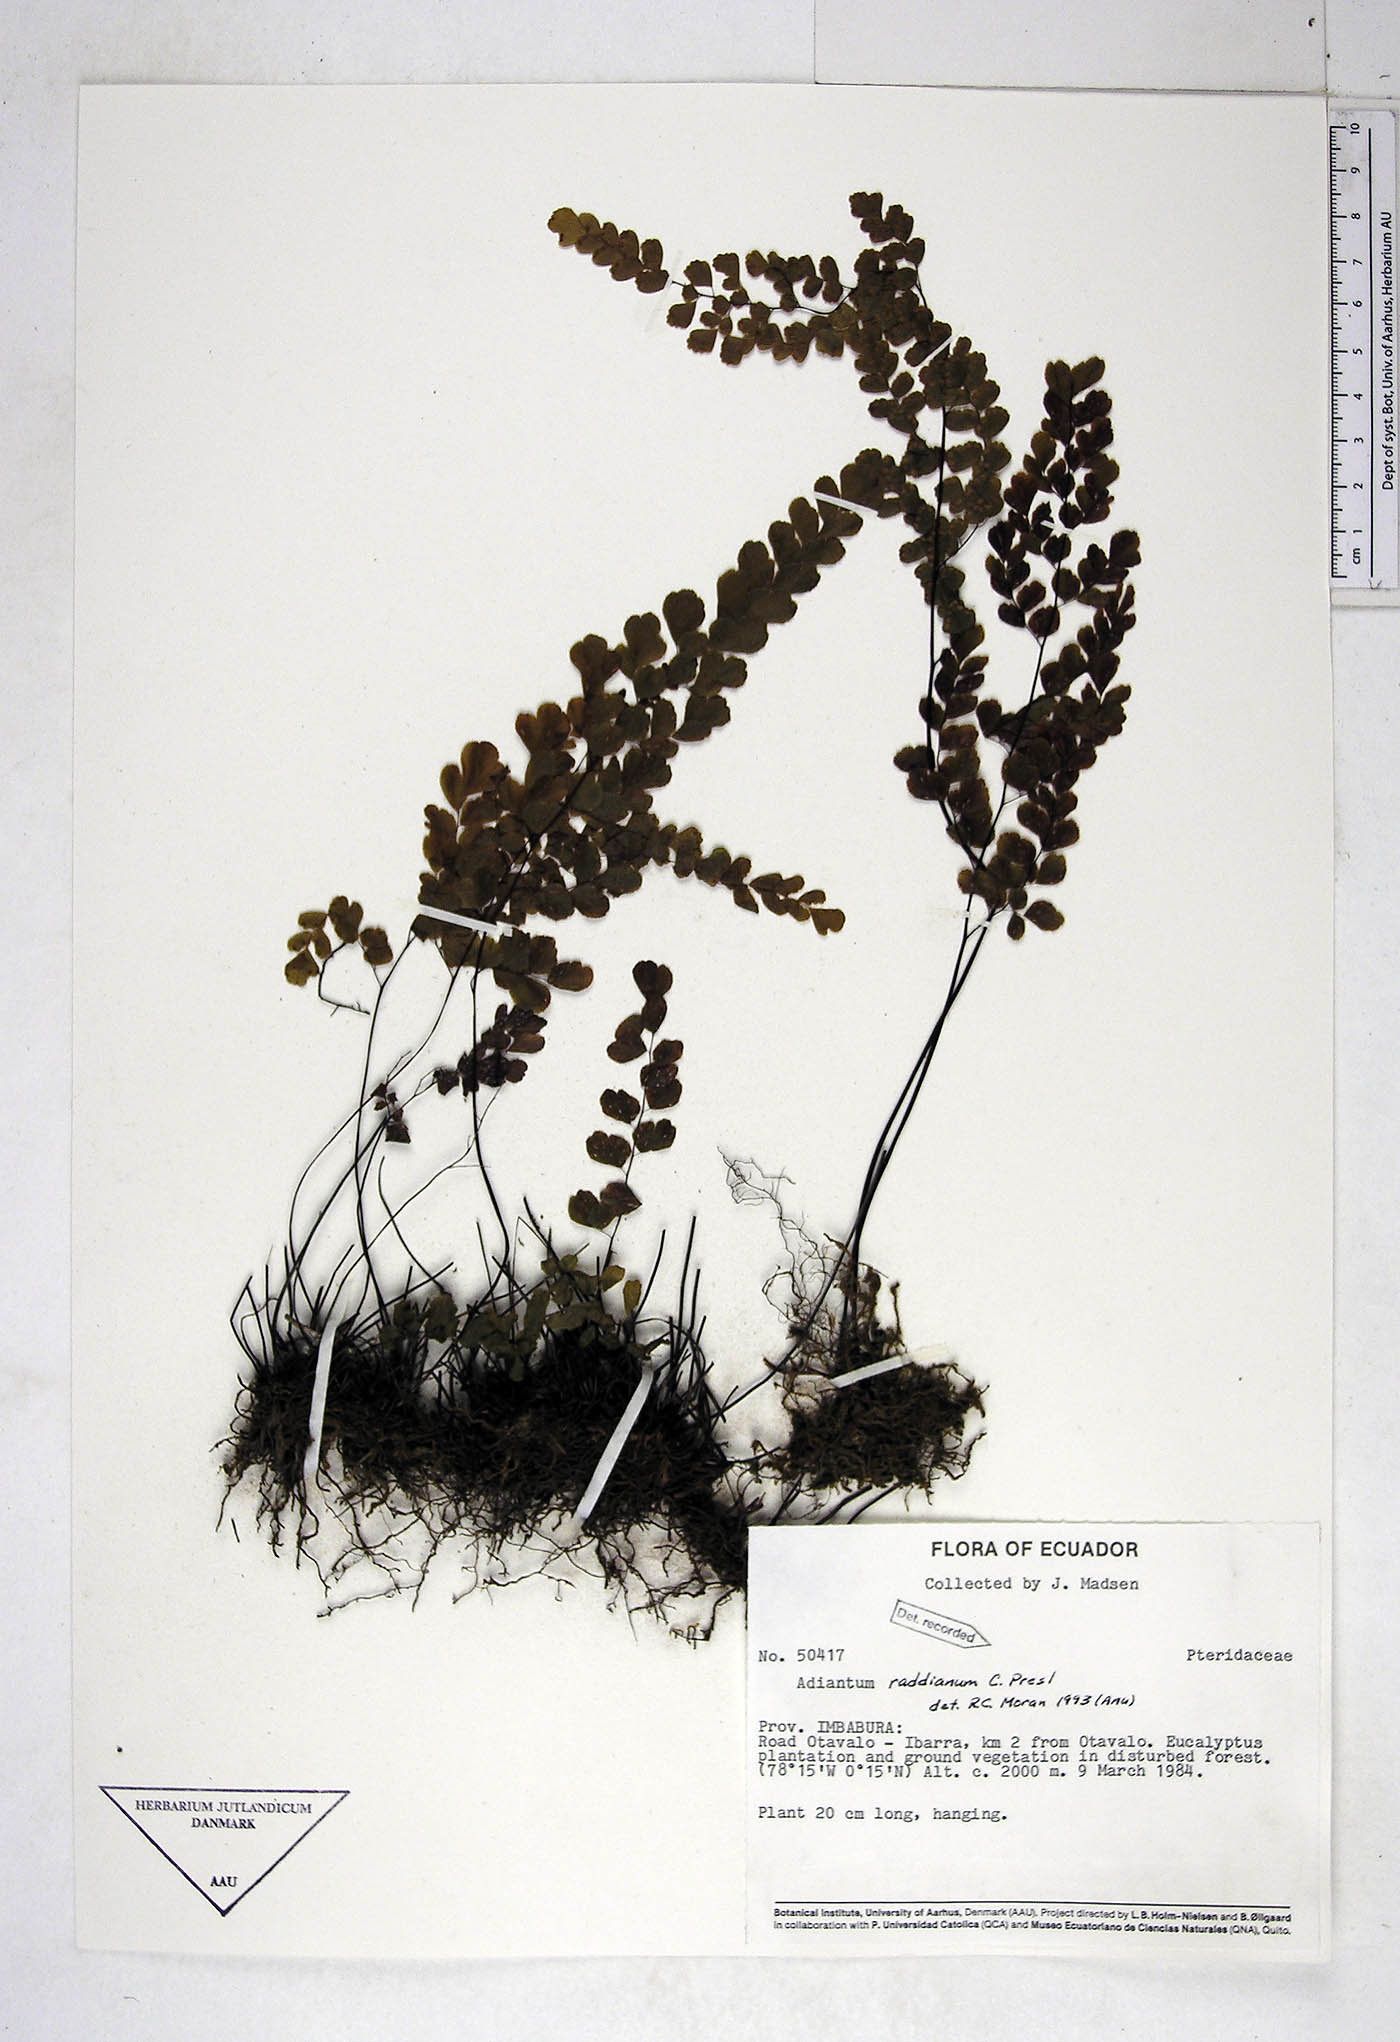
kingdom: Plantae
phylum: Tracheophyta
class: Polypodiopsida
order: Polypodiales
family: Pteridaceae
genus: Adiantum
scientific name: Adiantum raddianum
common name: Delta maidenhair fern
